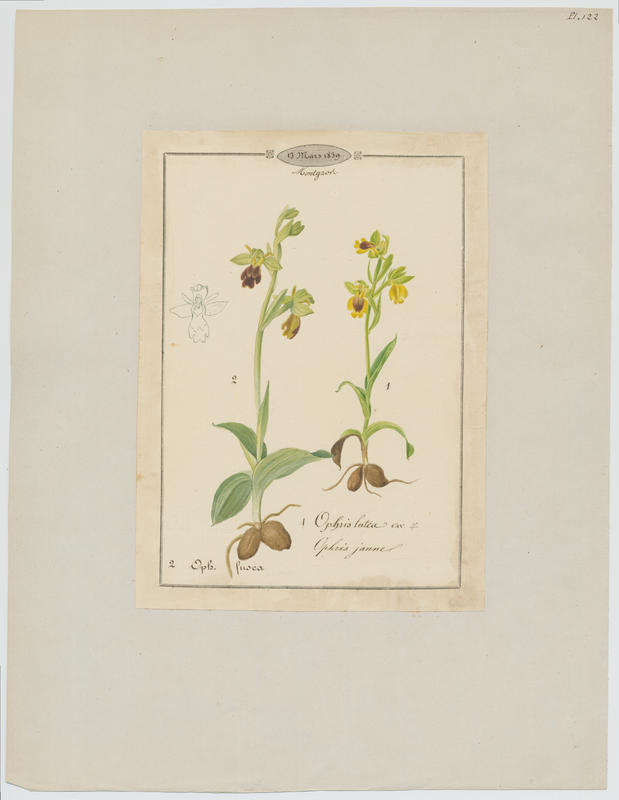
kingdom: Plantae
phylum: Tracheophyta
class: Liliopsida
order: Asparagales
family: Orchidaceae
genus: Ophrys
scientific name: Ophrys fusca
